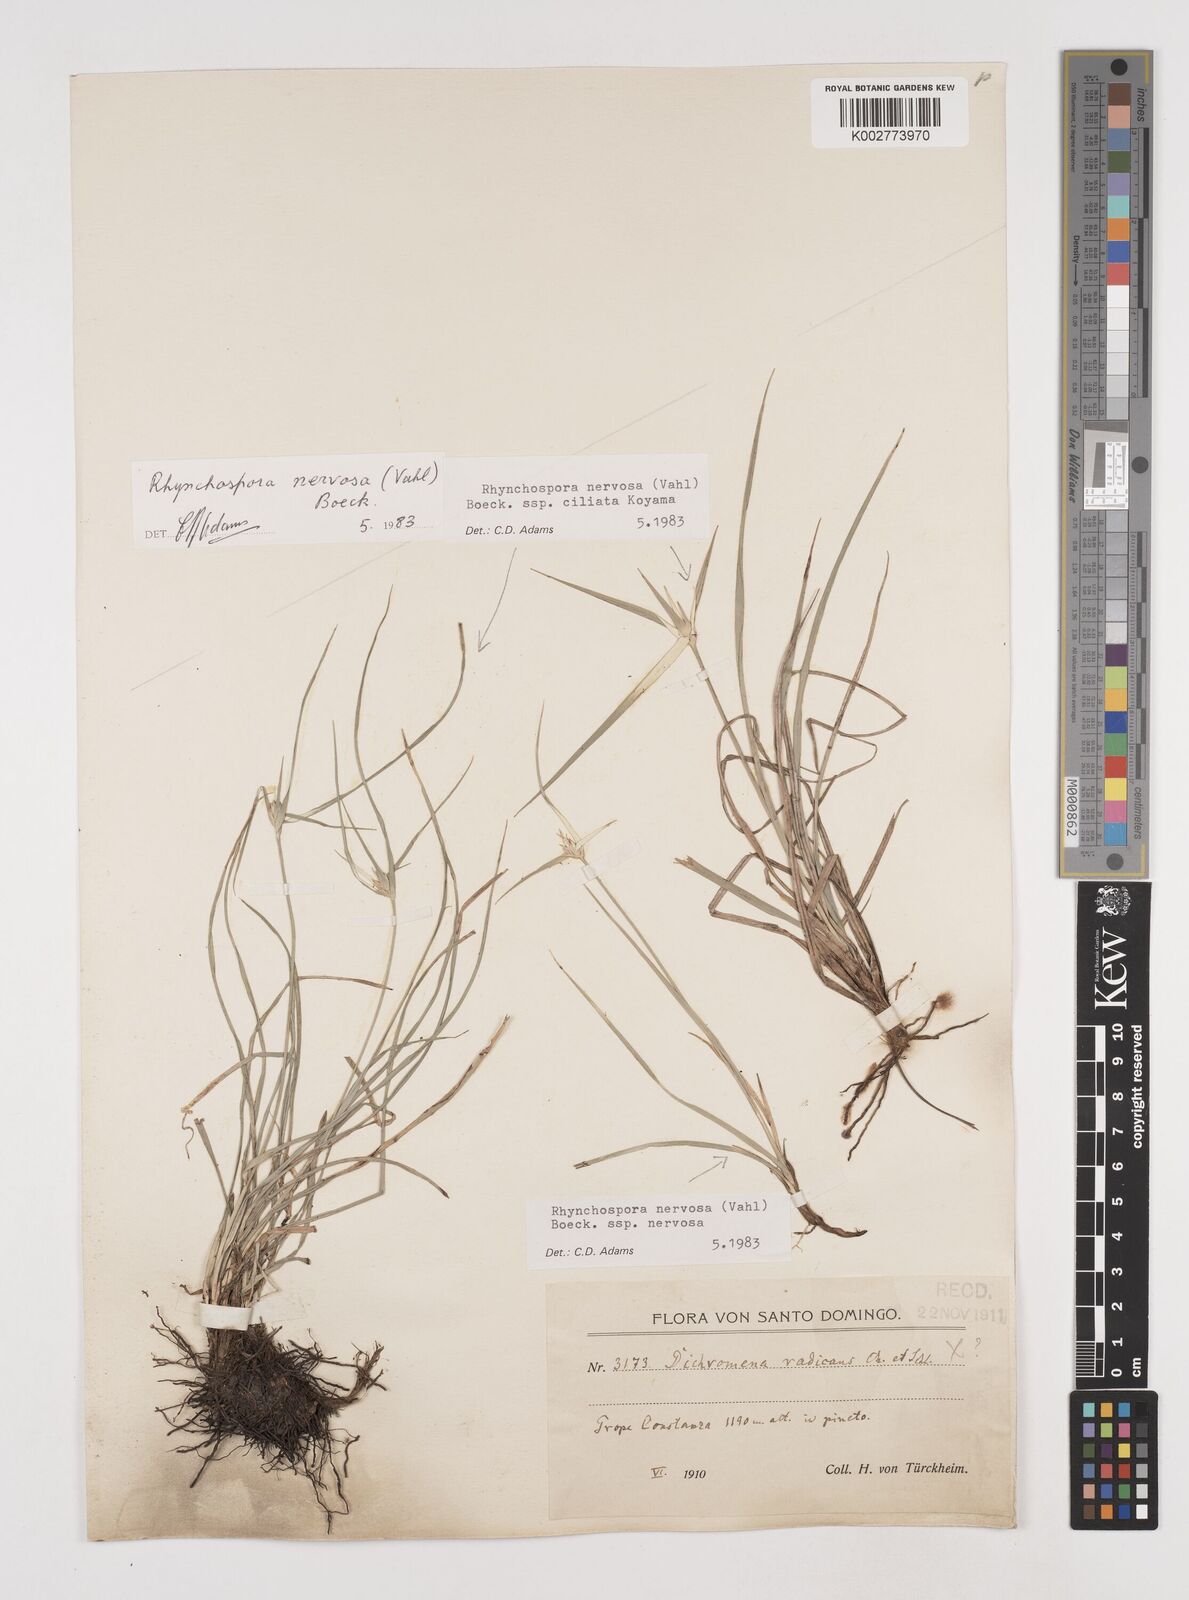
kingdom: Plantae
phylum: Tracheophyta
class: Liliopsida
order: Poales
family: Cyperaceae
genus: Rhynchospora
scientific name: Rhynchospora pura
